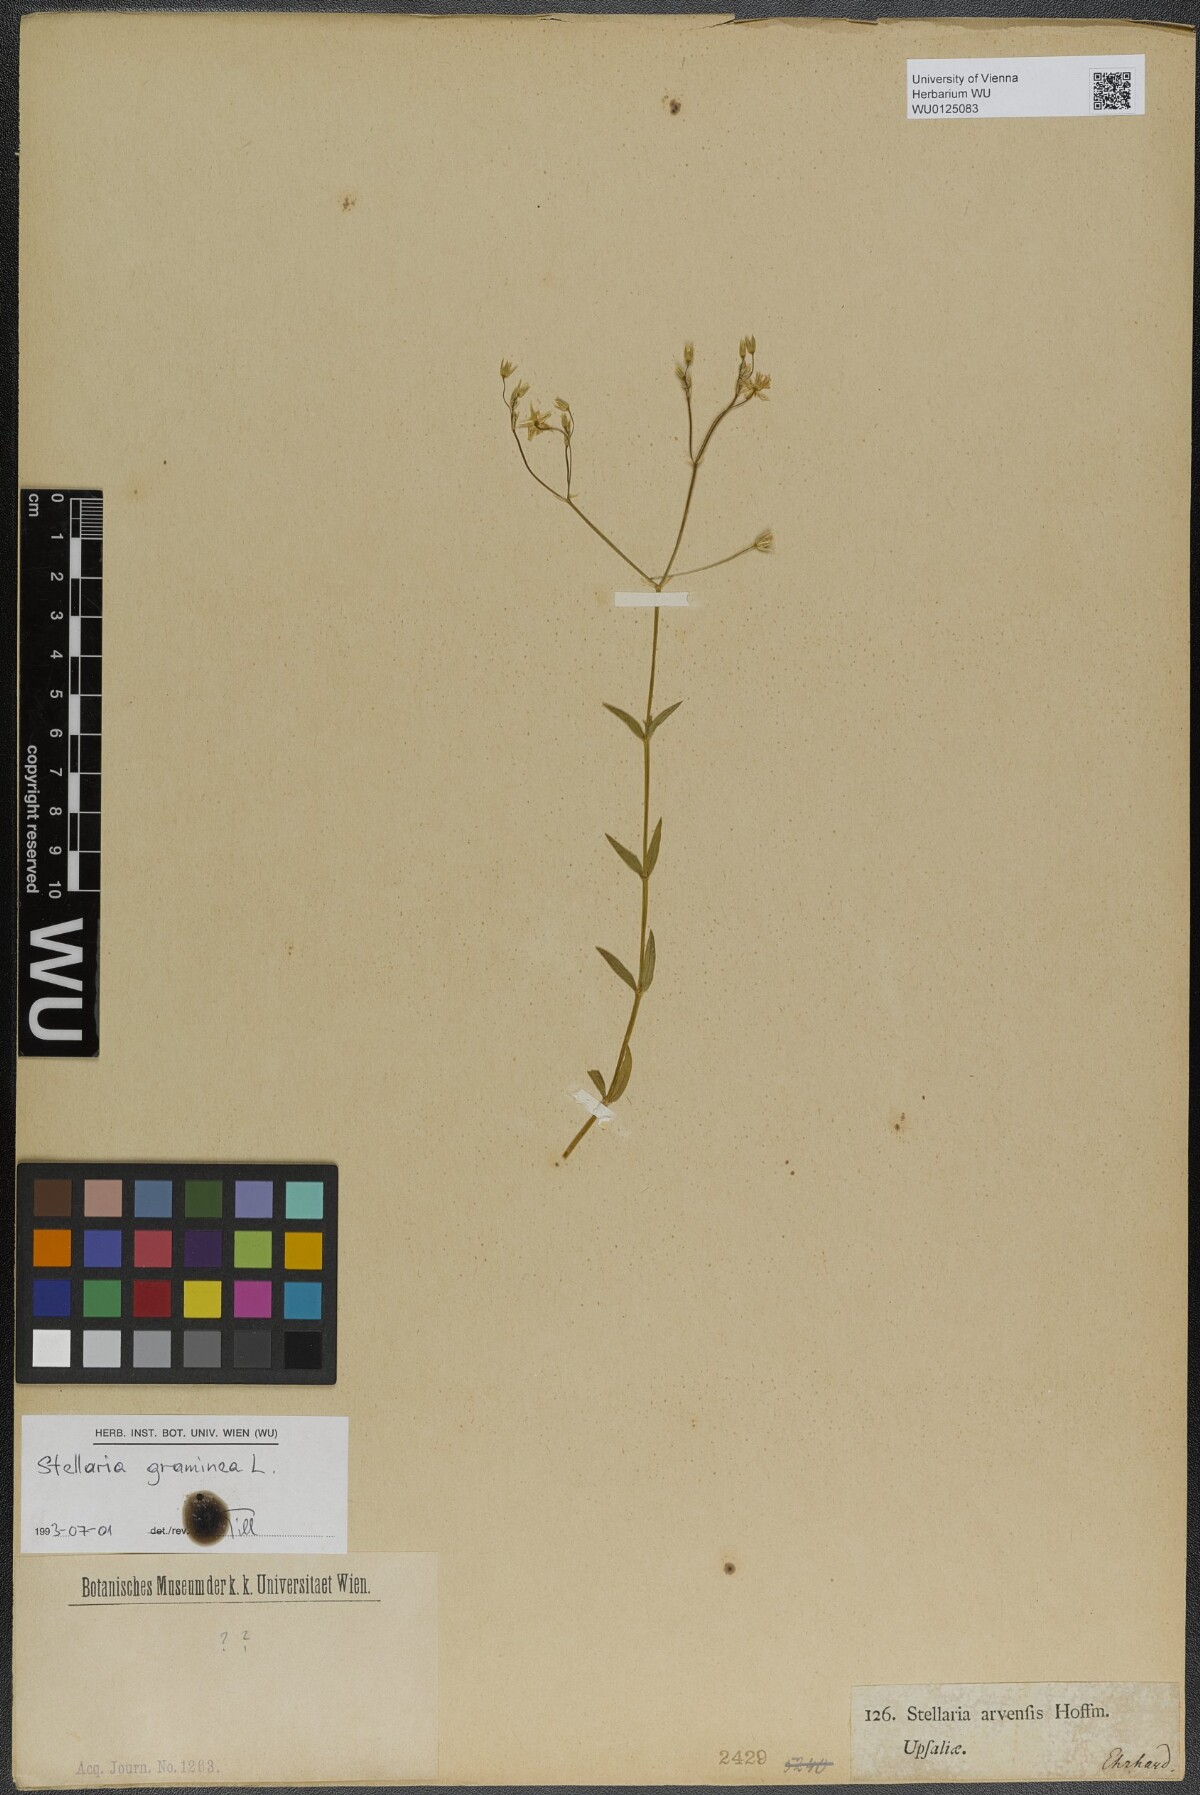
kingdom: Plantae
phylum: Tracheophyta
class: Magnoliopsida
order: Caryophyllales
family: Caryophyllaceae
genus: Stellaria
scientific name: Stellaria graminea
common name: Grass-like starwort
